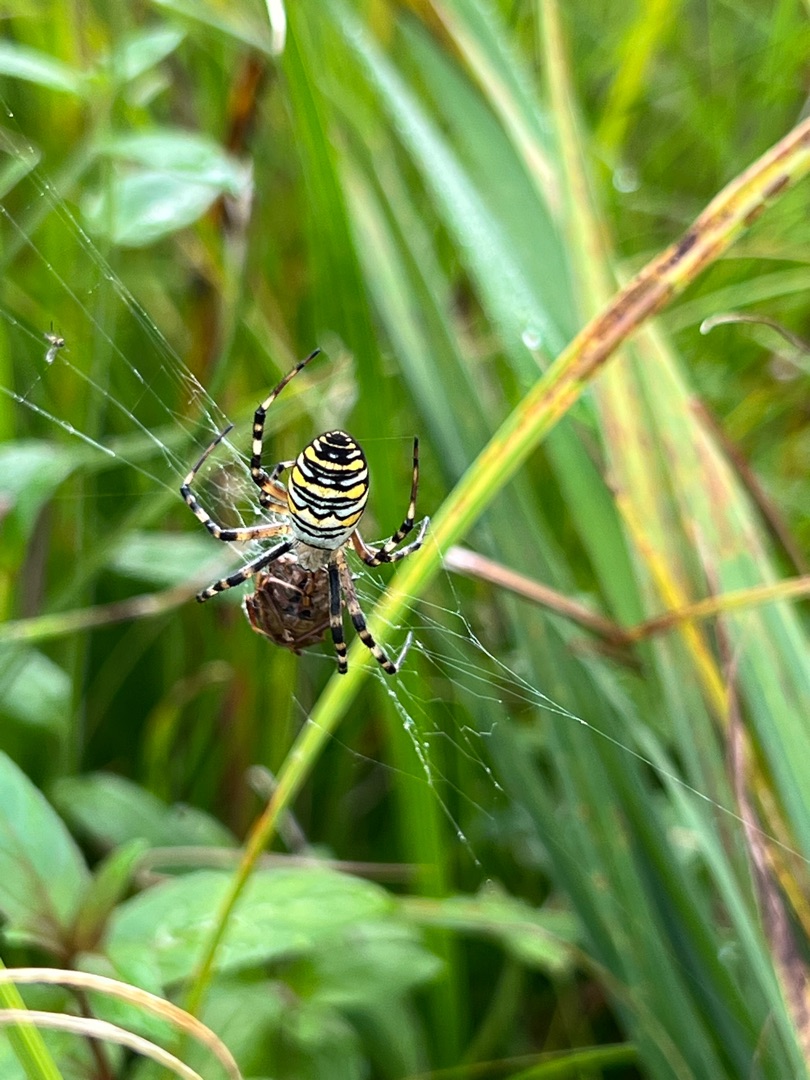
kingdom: Animalia
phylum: Arthropoda
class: Arachnida
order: Araneae
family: Araneidae
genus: Argiope
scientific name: Argiope bruennichi
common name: Hvepseedderkop
